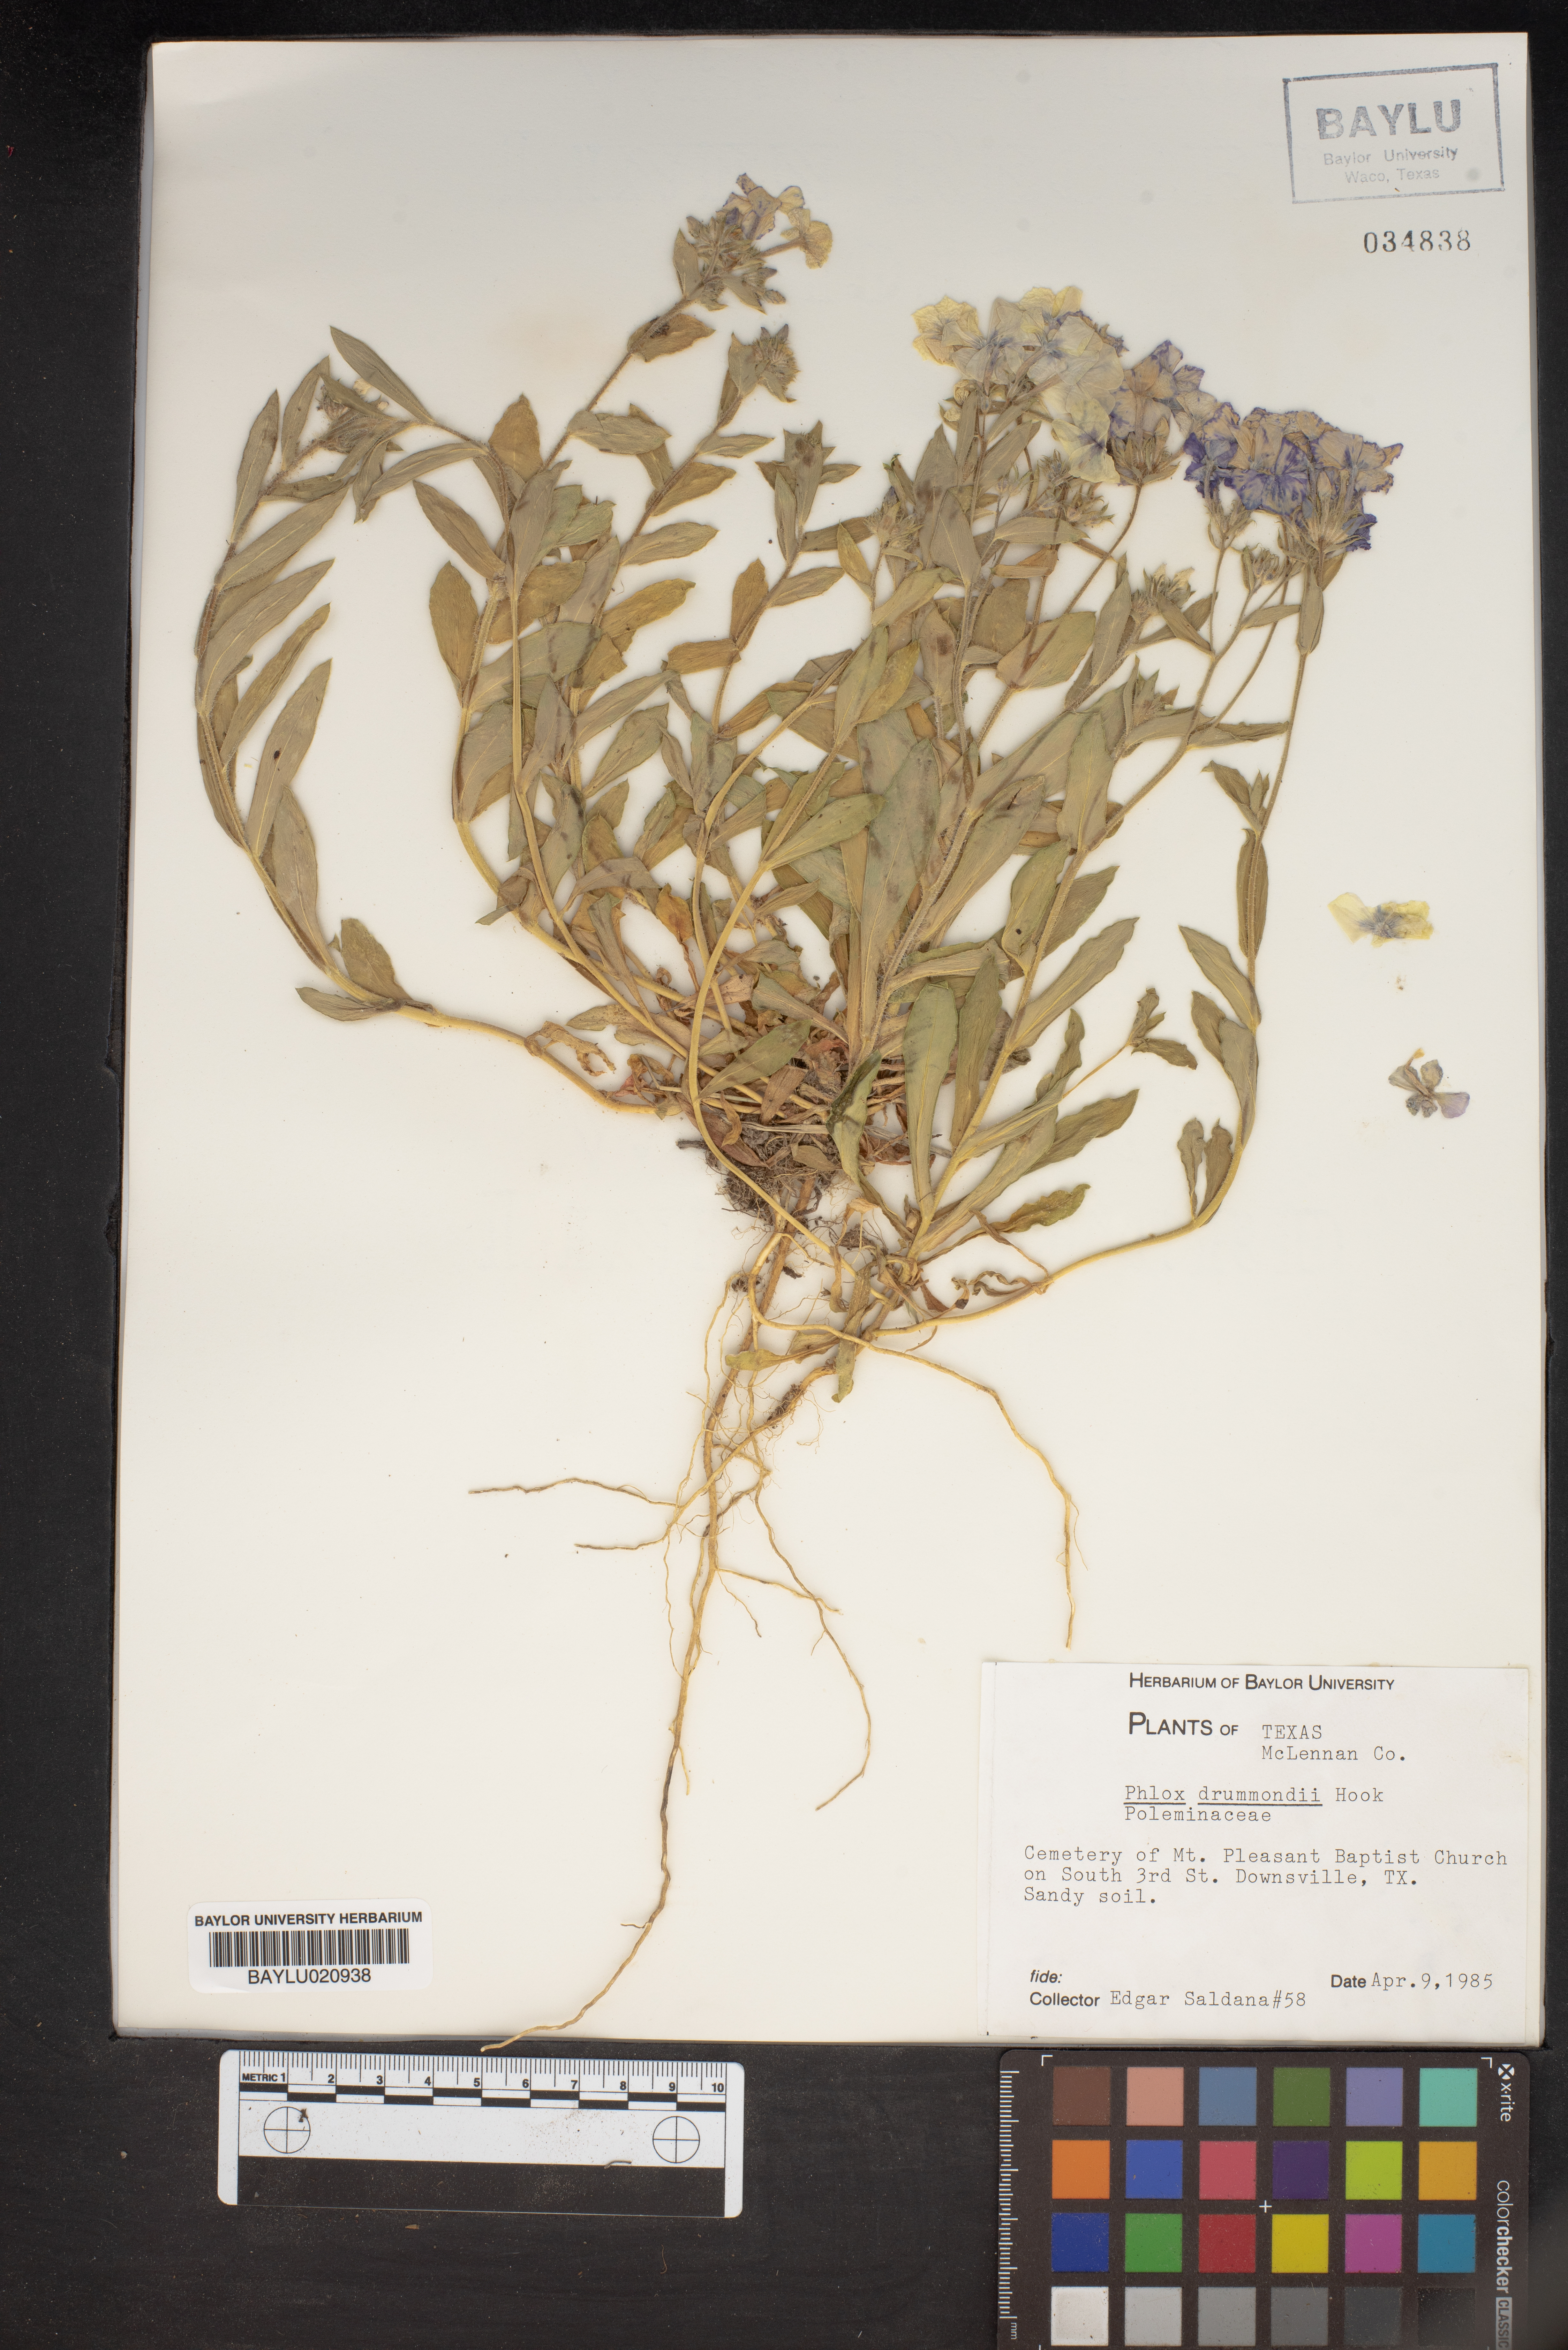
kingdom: Plantae
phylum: Tracheophyta
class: Magnoliopsida
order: Ericales
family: Polemoniaceae
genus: Phlox
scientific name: Phlox drummondii
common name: Drummond's phlox
